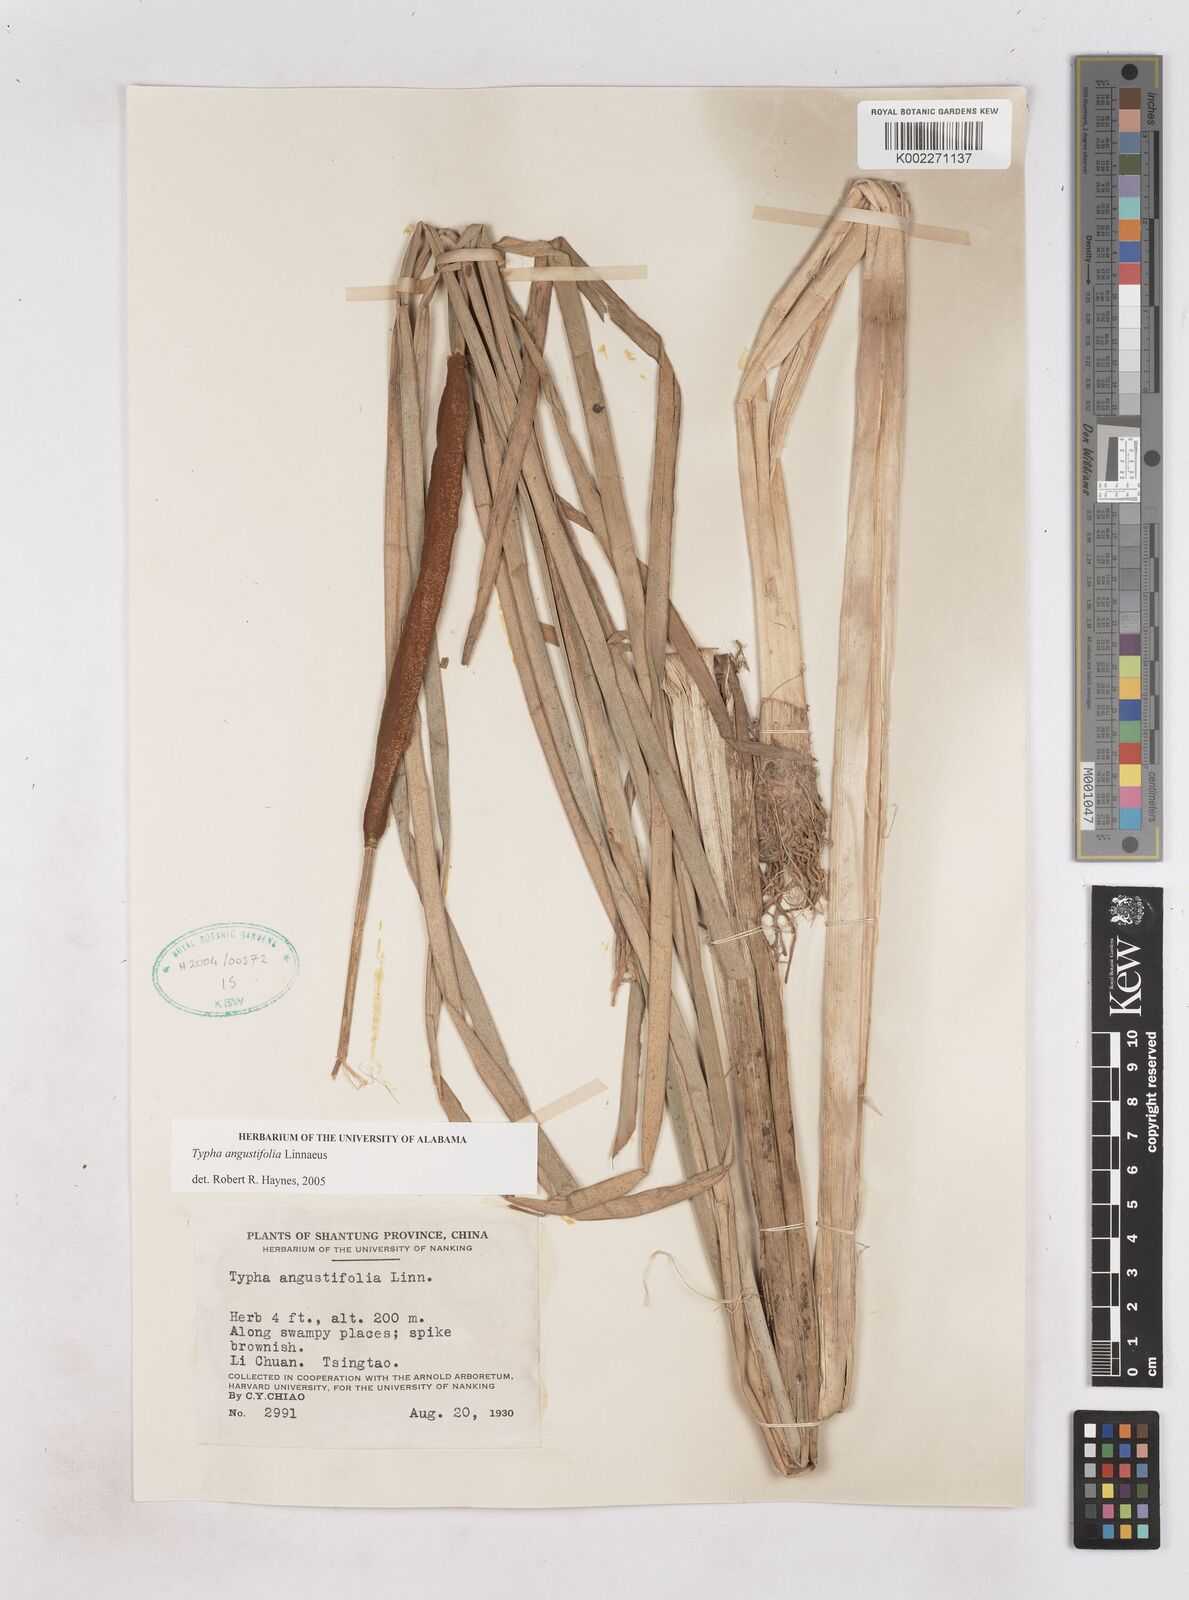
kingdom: Plantae
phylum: Tracheophyta
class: Liliopsida
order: Poales
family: Typhaceae
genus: Typha
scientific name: Typha angustifolia
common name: Lesser bulrush
